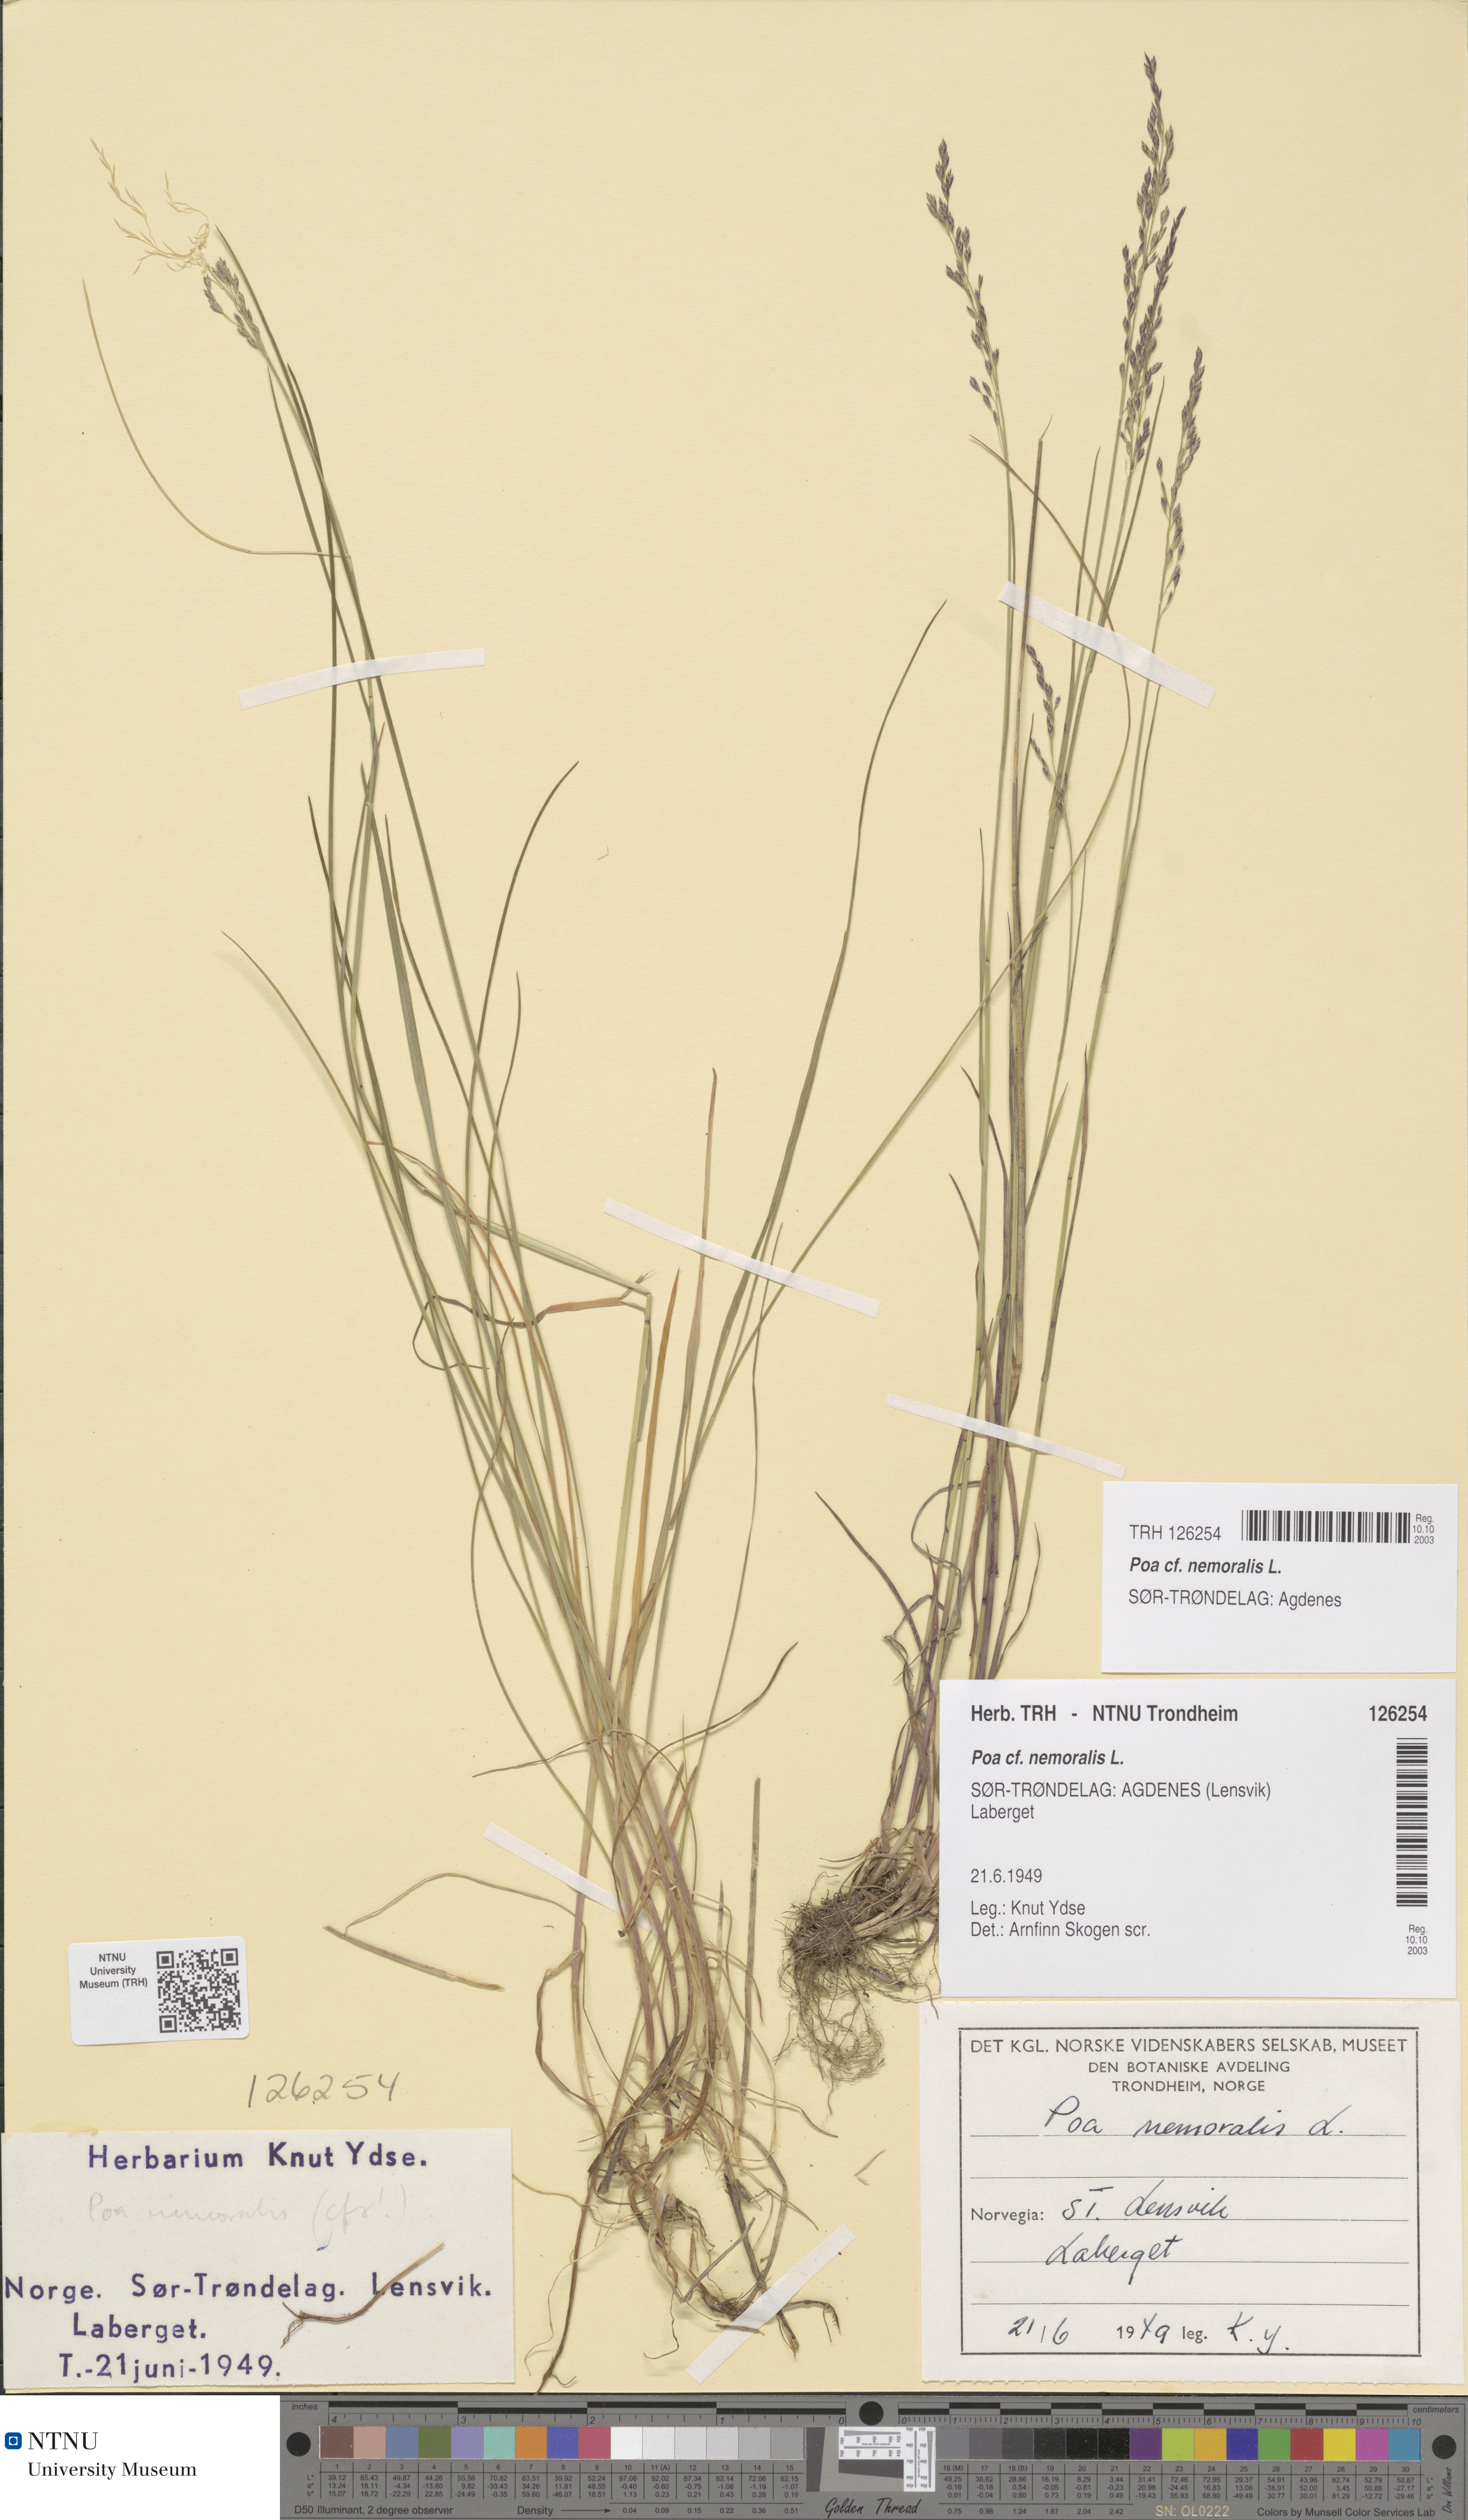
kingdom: Plantae
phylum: Tracheophyta
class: Liliopsida
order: Poales
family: Poaceae
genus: Poa
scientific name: Poa nemoralis
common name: Wood bluegrass
